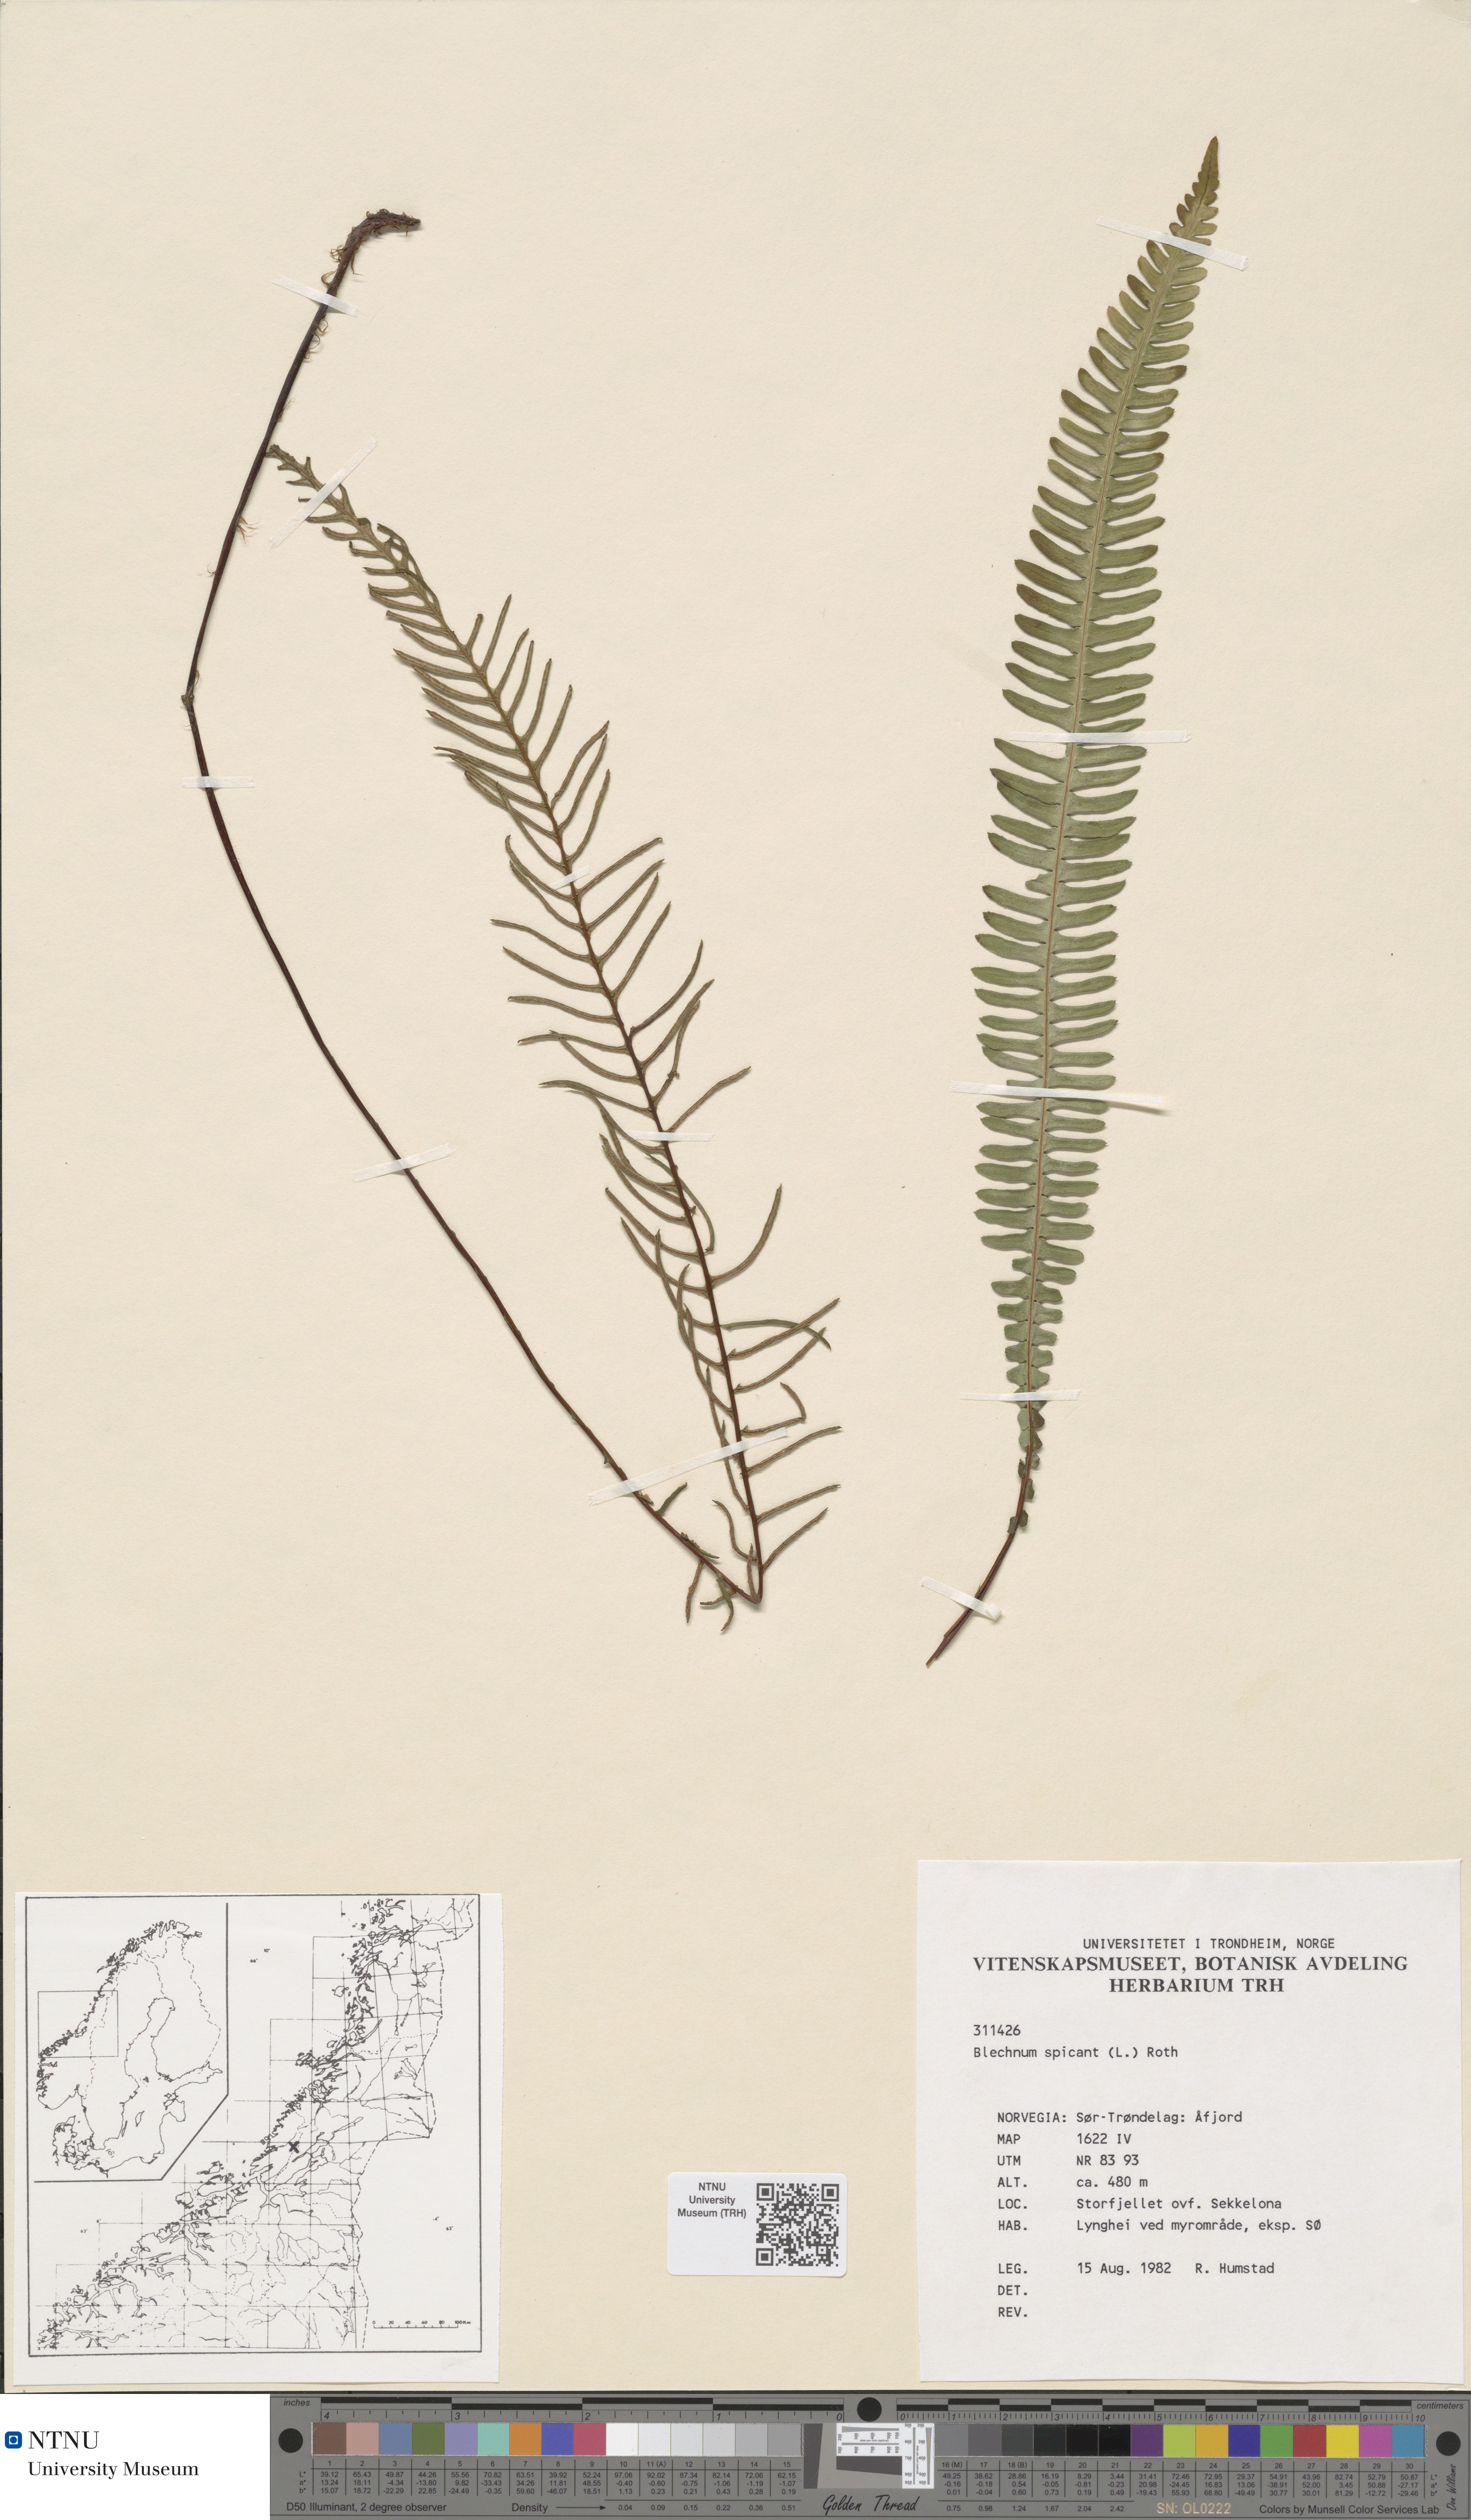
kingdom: Plantae
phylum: Tracheophyta
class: Polypodiopsida
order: Polypodiales
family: Blechnaceae
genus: Struthiopteris
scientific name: Struthiopteris spicant
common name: Deer fern
